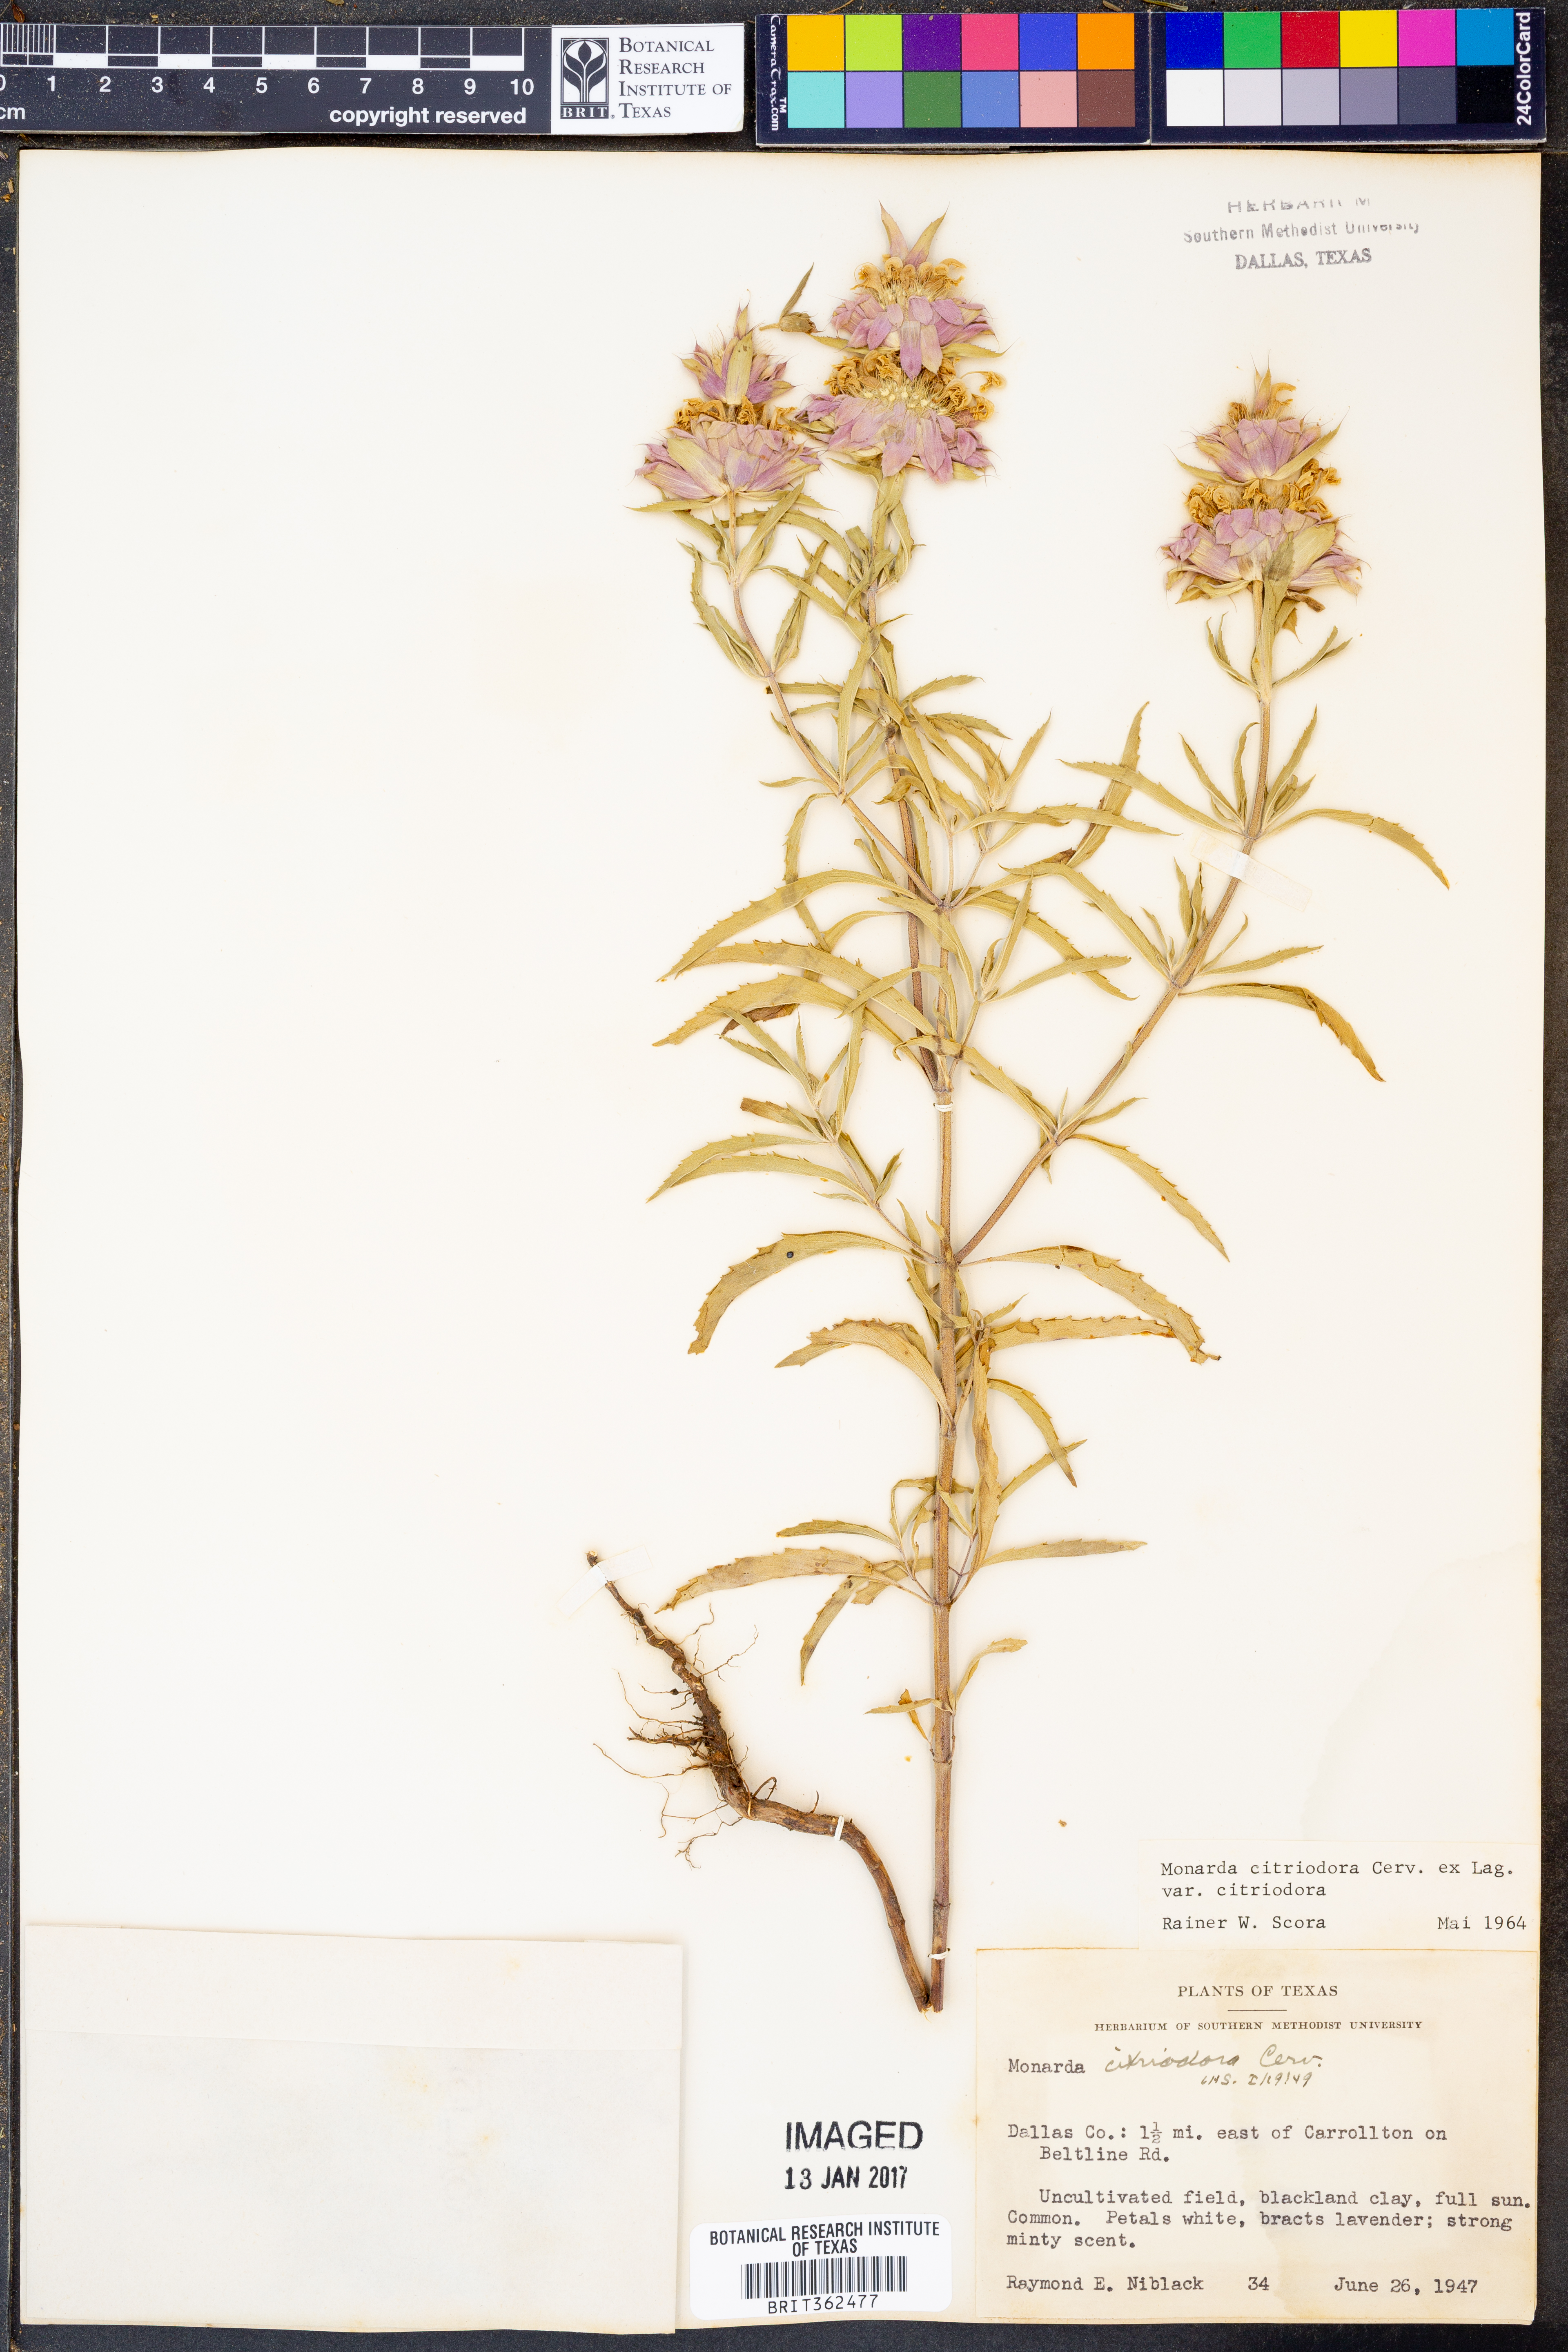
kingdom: Plantae
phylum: Tracheophyta
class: Magnoliopsida
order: Lamiales
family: Lamiaceae
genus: Monarda
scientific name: Monarda citriodora
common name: Lemon beebalm
